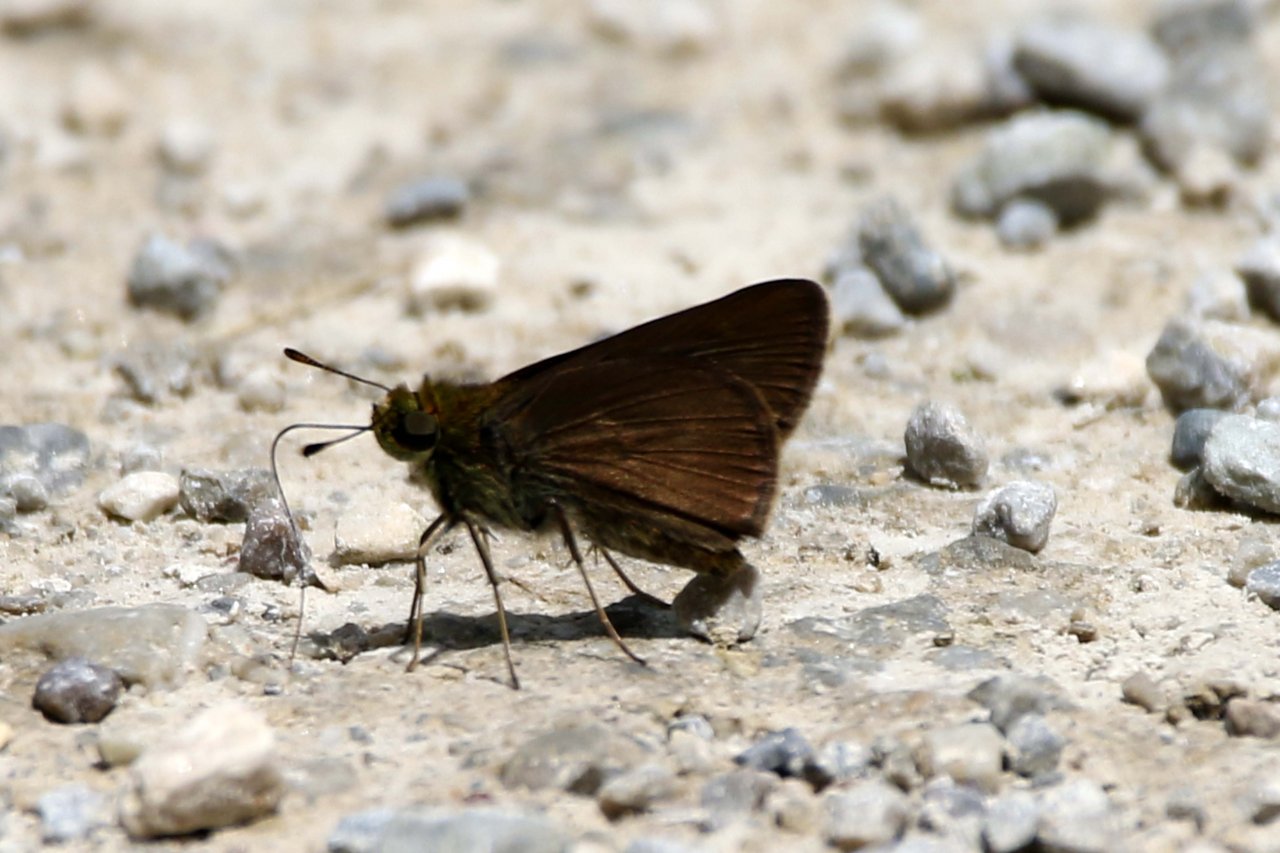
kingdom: Animalia
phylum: Arthropoda
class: Insecta
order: Lepidoptera
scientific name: Lepidoptera
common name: Butterflies
